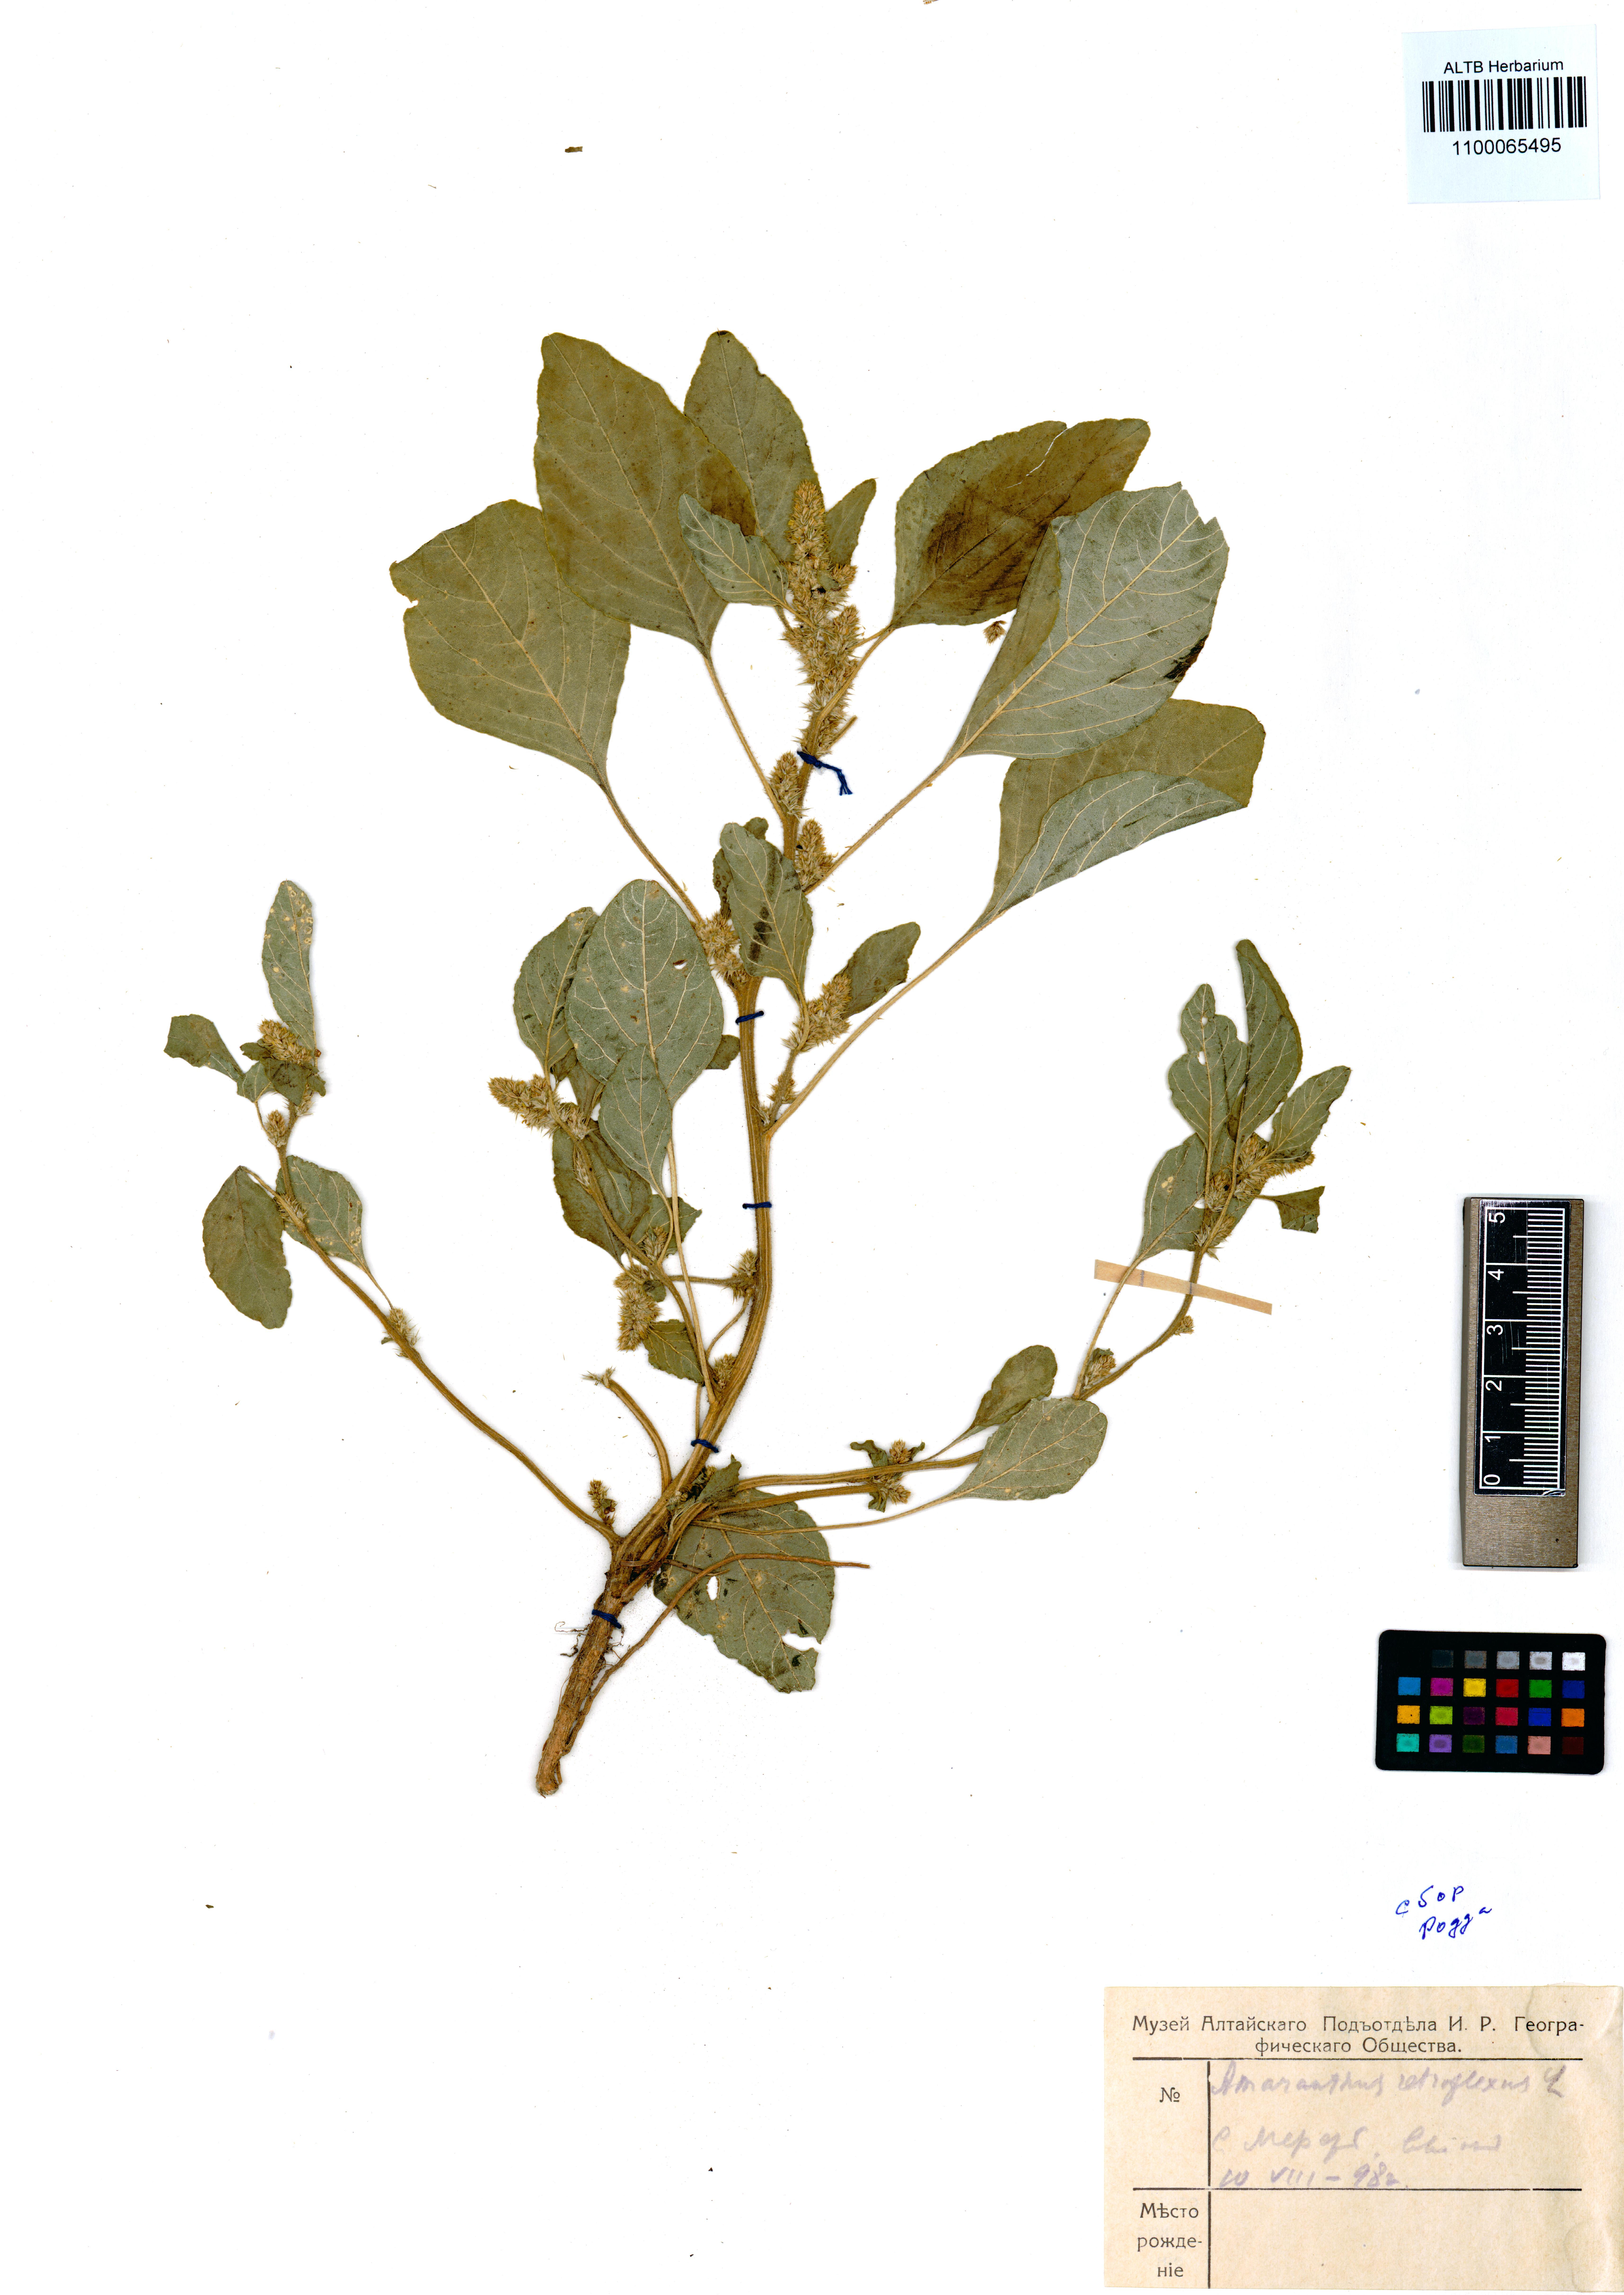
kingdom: Plantae
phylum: Tracheophyta
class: Magnoliopsida
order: Caryophyllales
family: Amaranthaceae
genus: Amaranthus
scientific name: Amaranthus retroflexus
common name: Redroot amaranth
